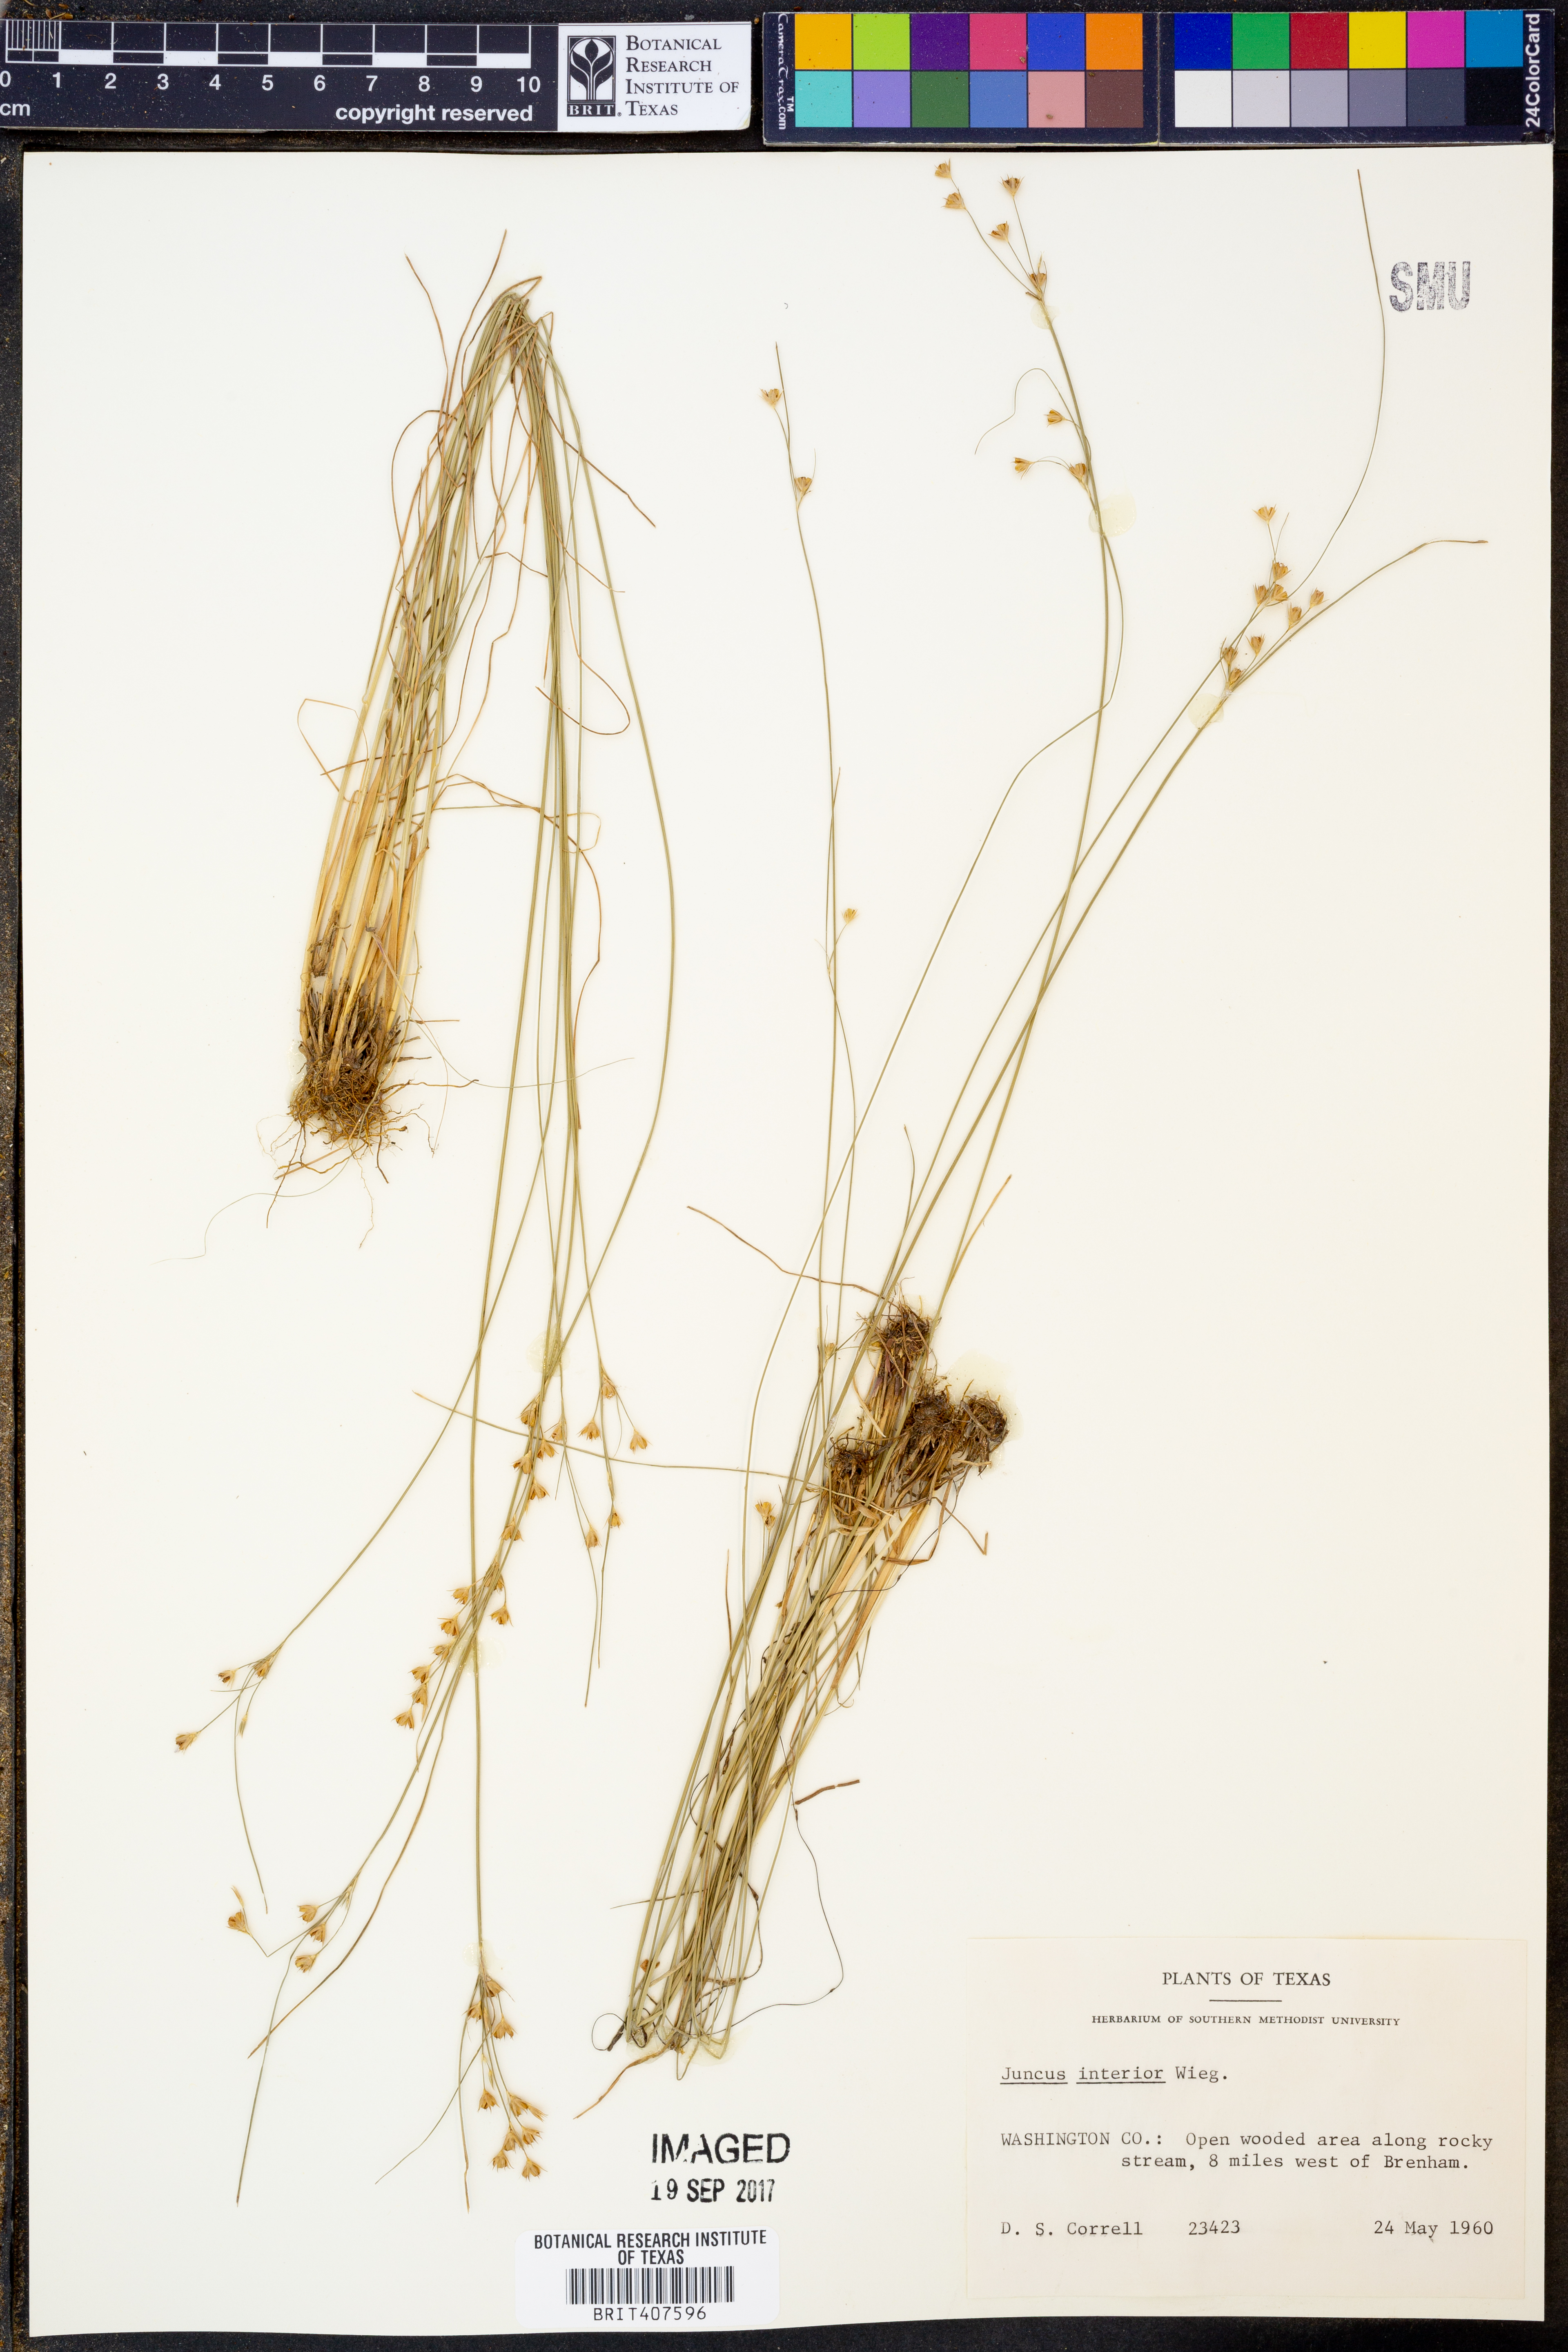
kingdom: Plantae
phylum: Tracheophyta
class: Liliopsida
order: Poales
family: Juncaceae
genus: Juncus
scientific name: Juncus interior
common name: Interior rush
